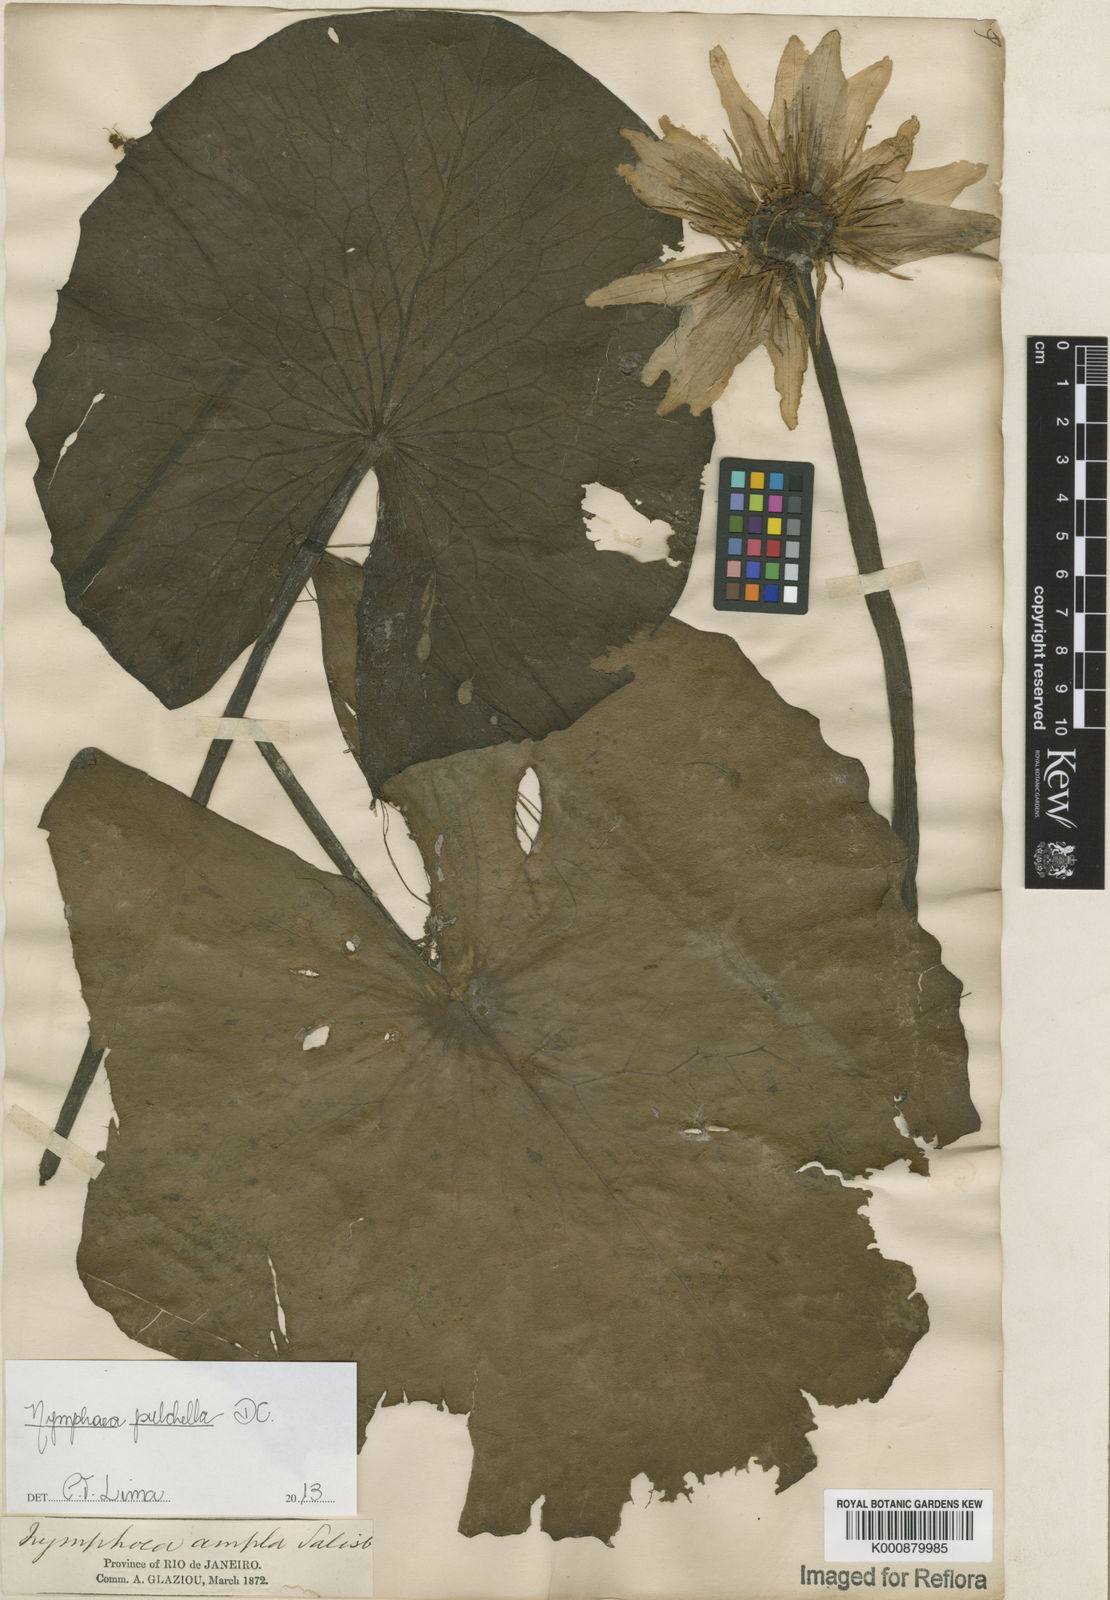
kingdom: Plantae
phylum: Tracheophyta
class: Magnoliopsida
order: Nymphaeales
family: Nymphaeaceae
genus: Nymphaea
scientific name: Nymphaea pulchella
